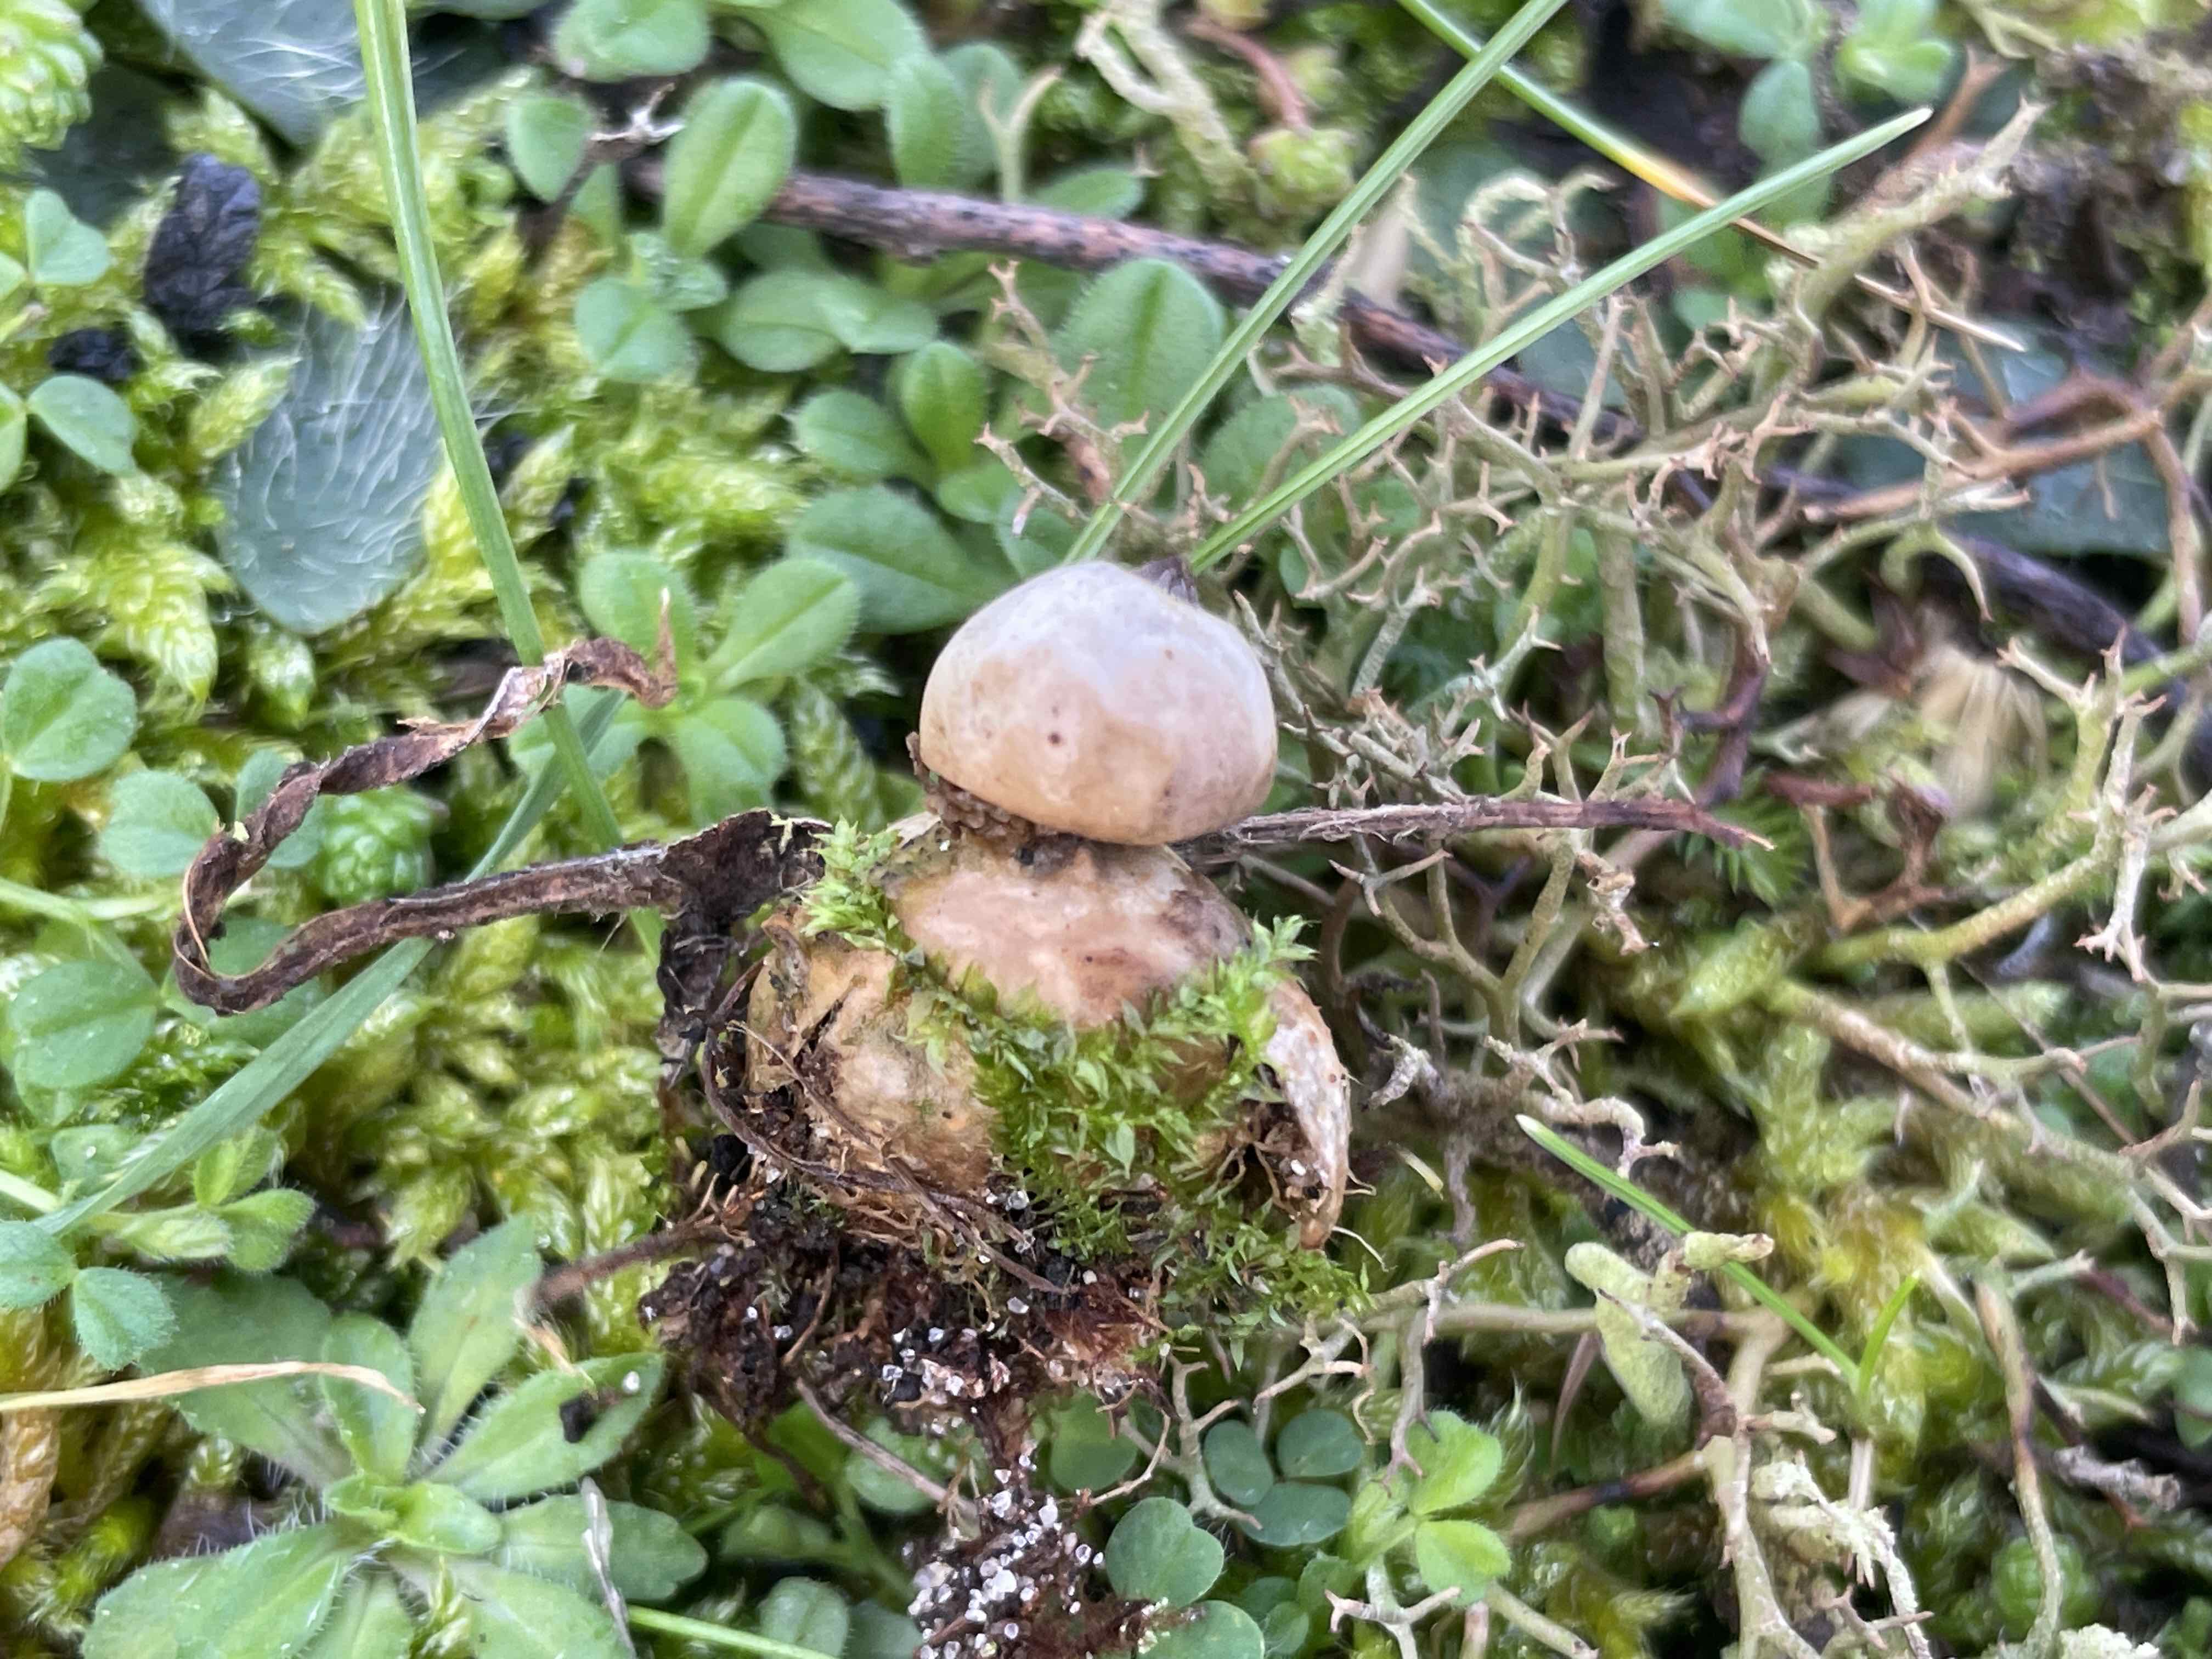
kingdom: Fungi
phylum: Basidiomycota
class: Agaricomycetes
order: Geastrales
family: Geastraceae
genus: Geastrum
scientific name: Geastrum
